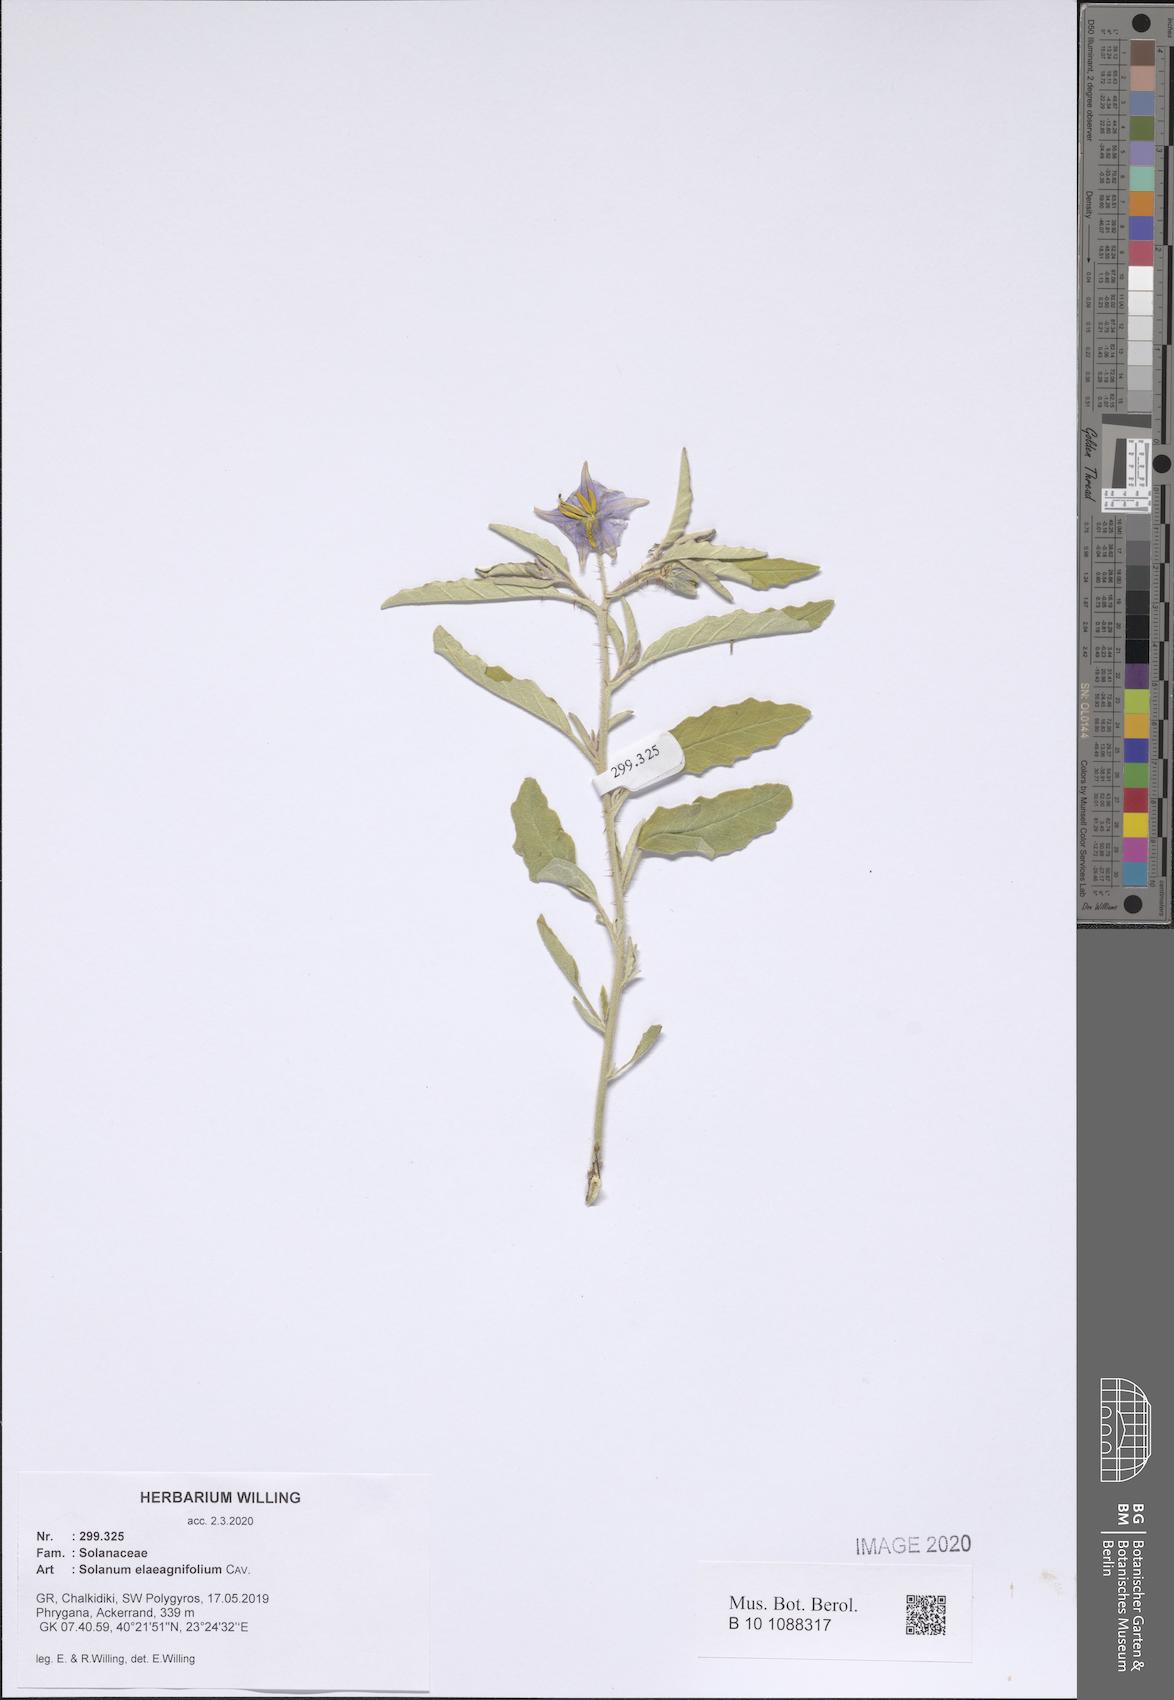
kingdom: Plantae
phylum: Tracheophyta
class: Magnoliopsida
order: Solanales
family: Solanaceae
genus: Solanum
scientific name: Solanum elaeagnifolium
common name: Silverleaf nightshade
